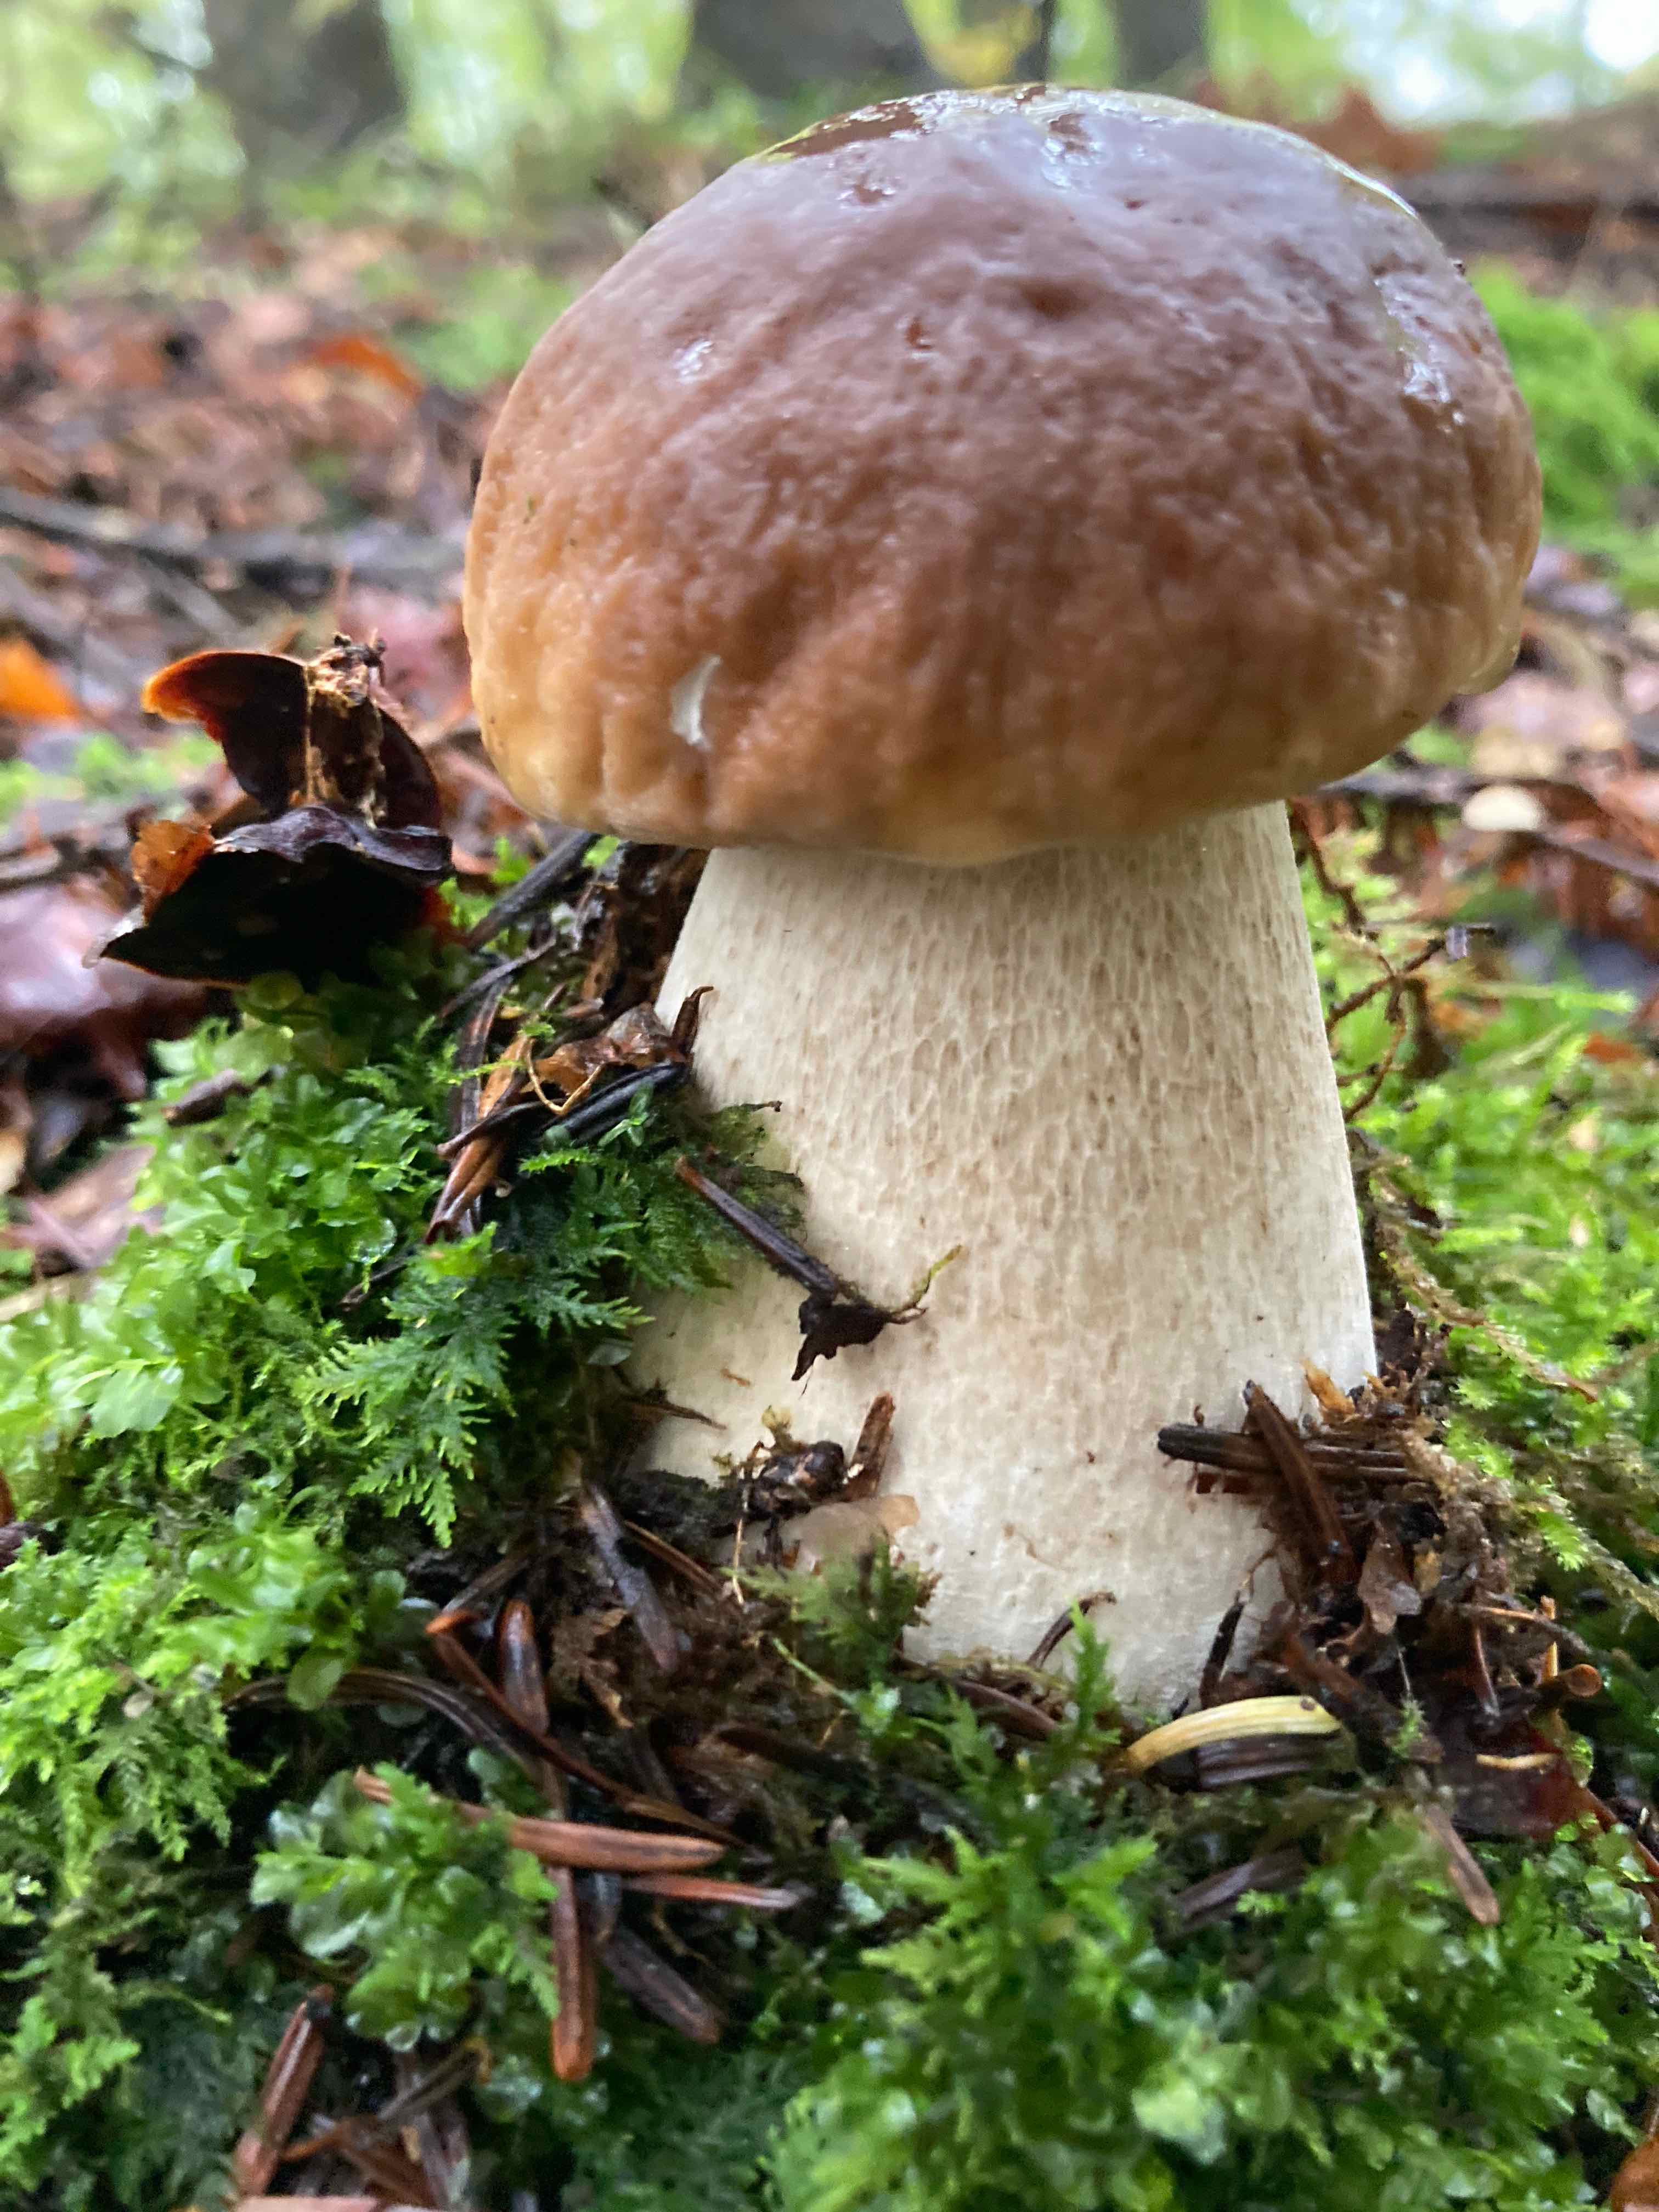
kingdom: Fungi
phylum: Basidiomycota
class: Agaricomycetes
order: Boletales
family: Boletaceae
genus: Boletus
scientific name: Boletus edulis
